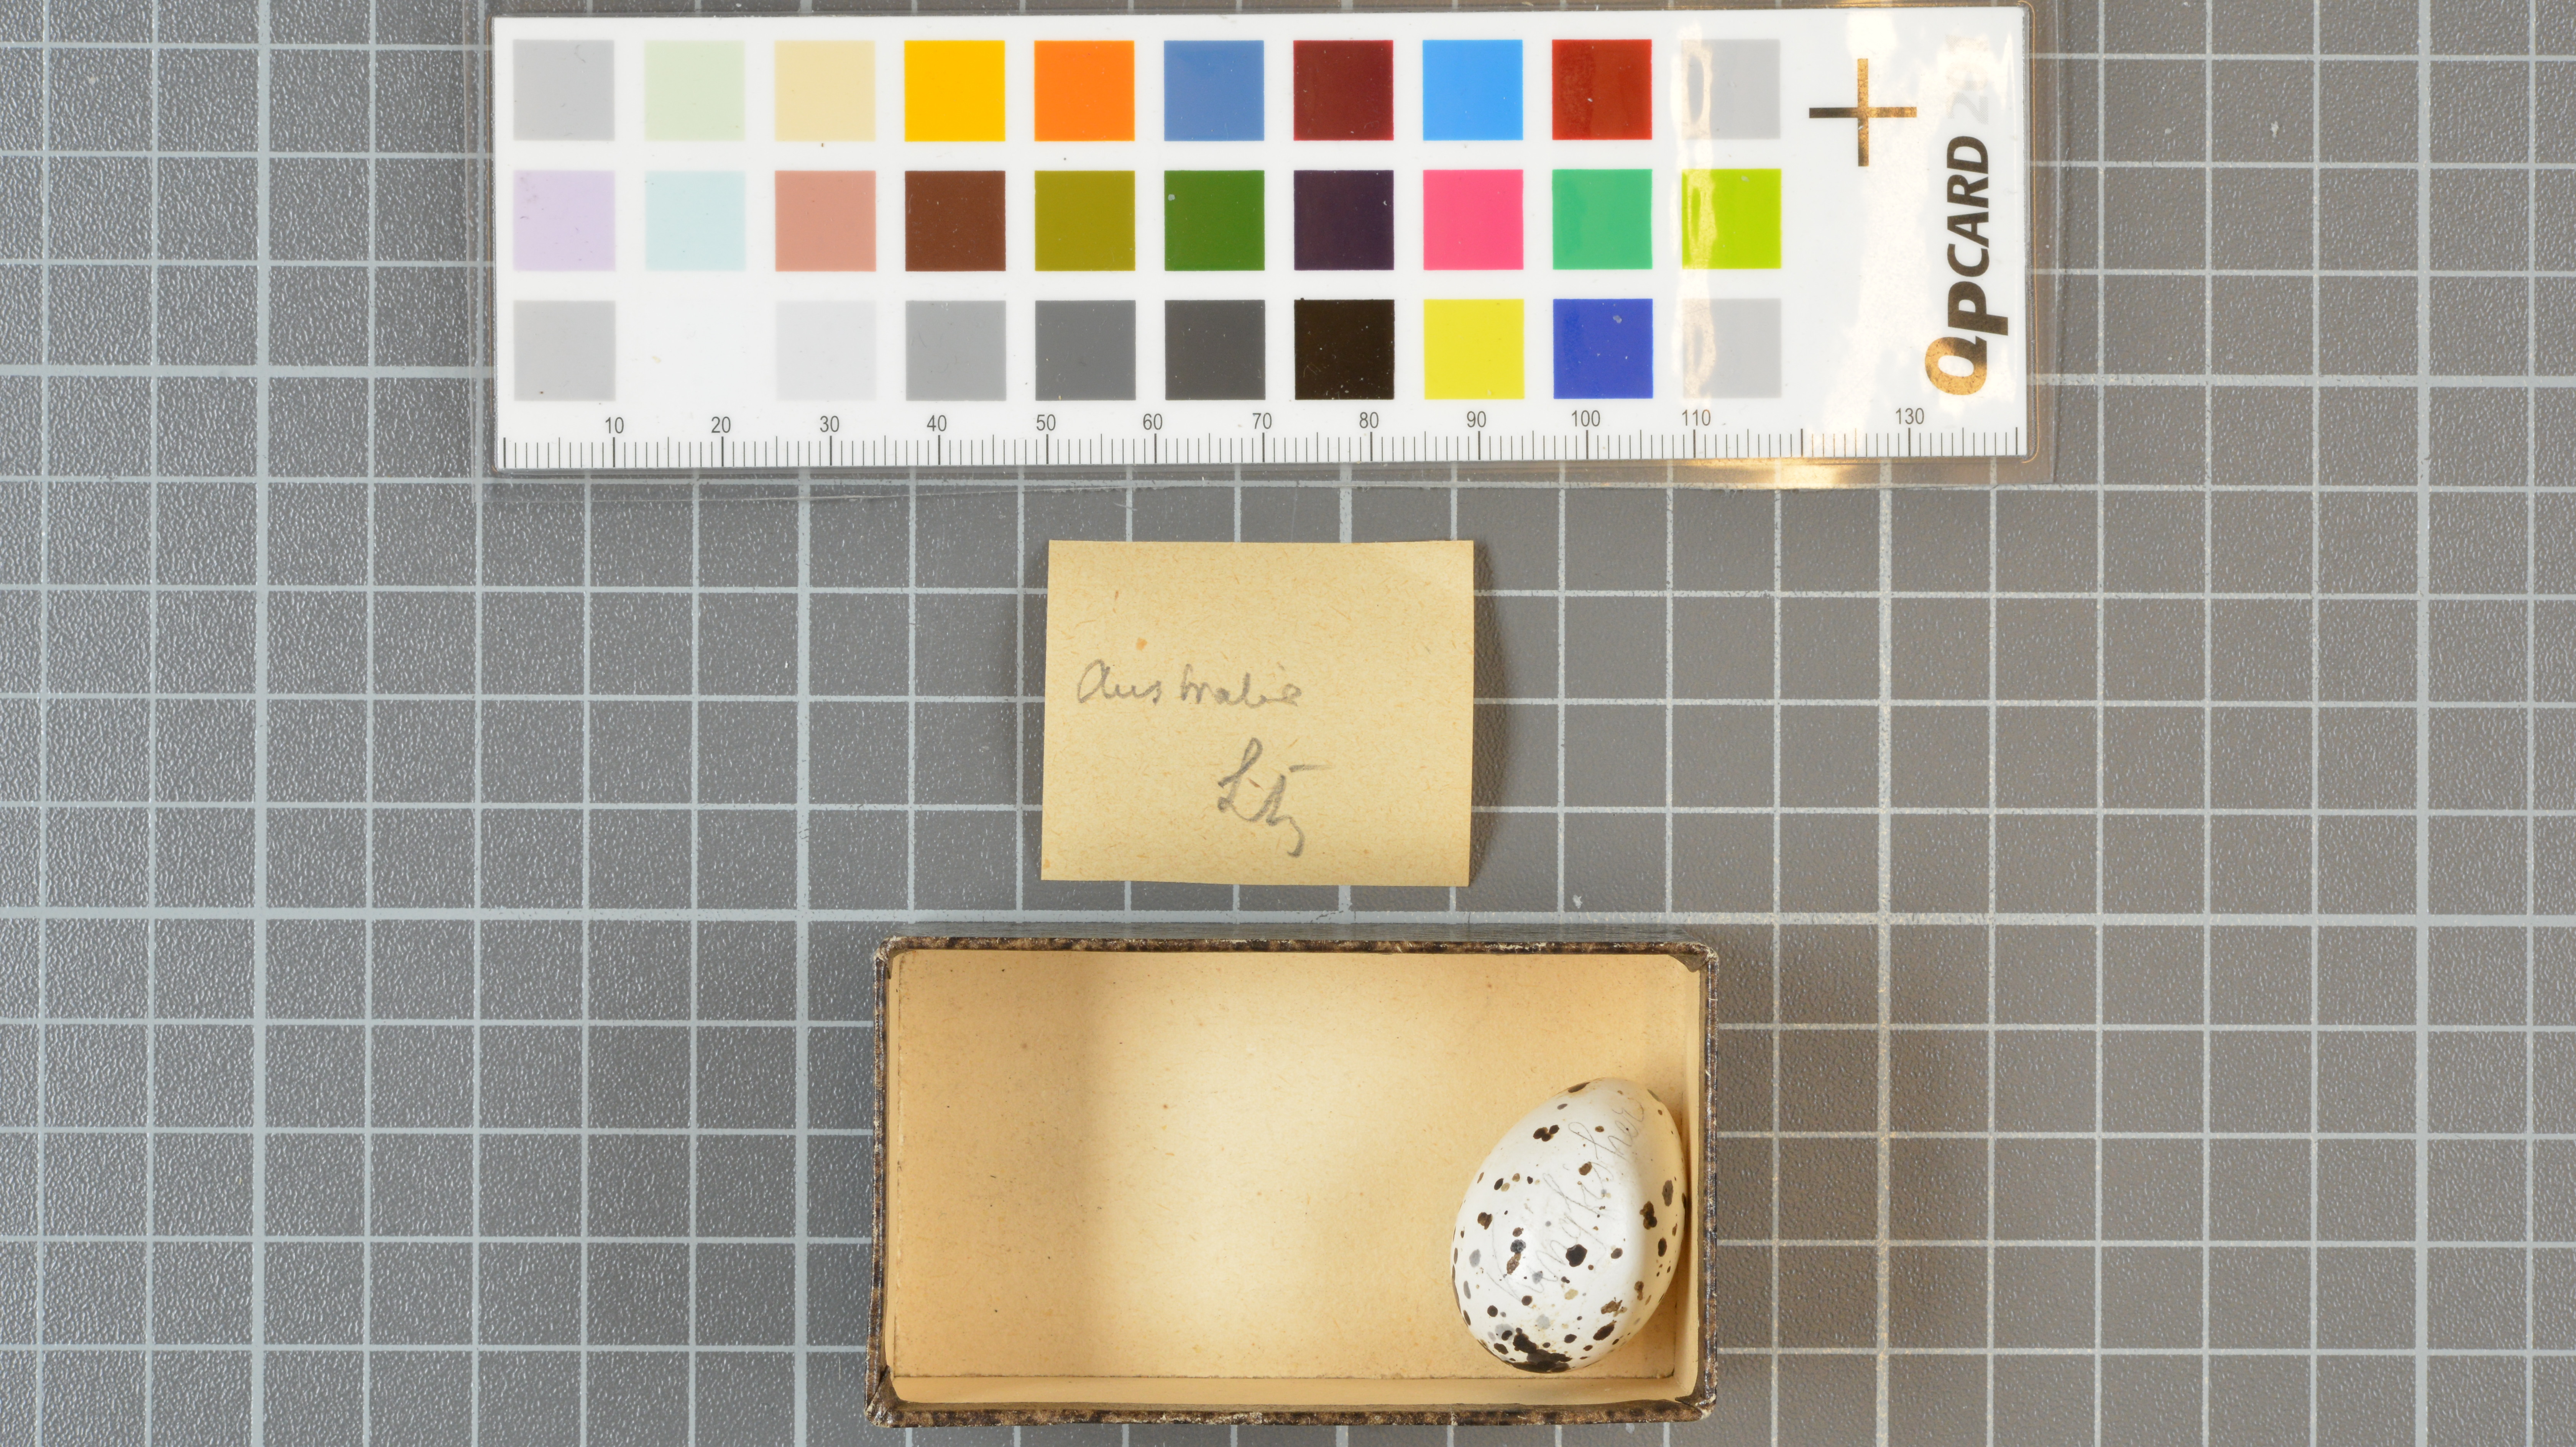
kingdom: Animalia
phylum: Chordata
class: Aves
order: Coraciiformes
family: Alcedinidae
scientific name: Alcedinidae
